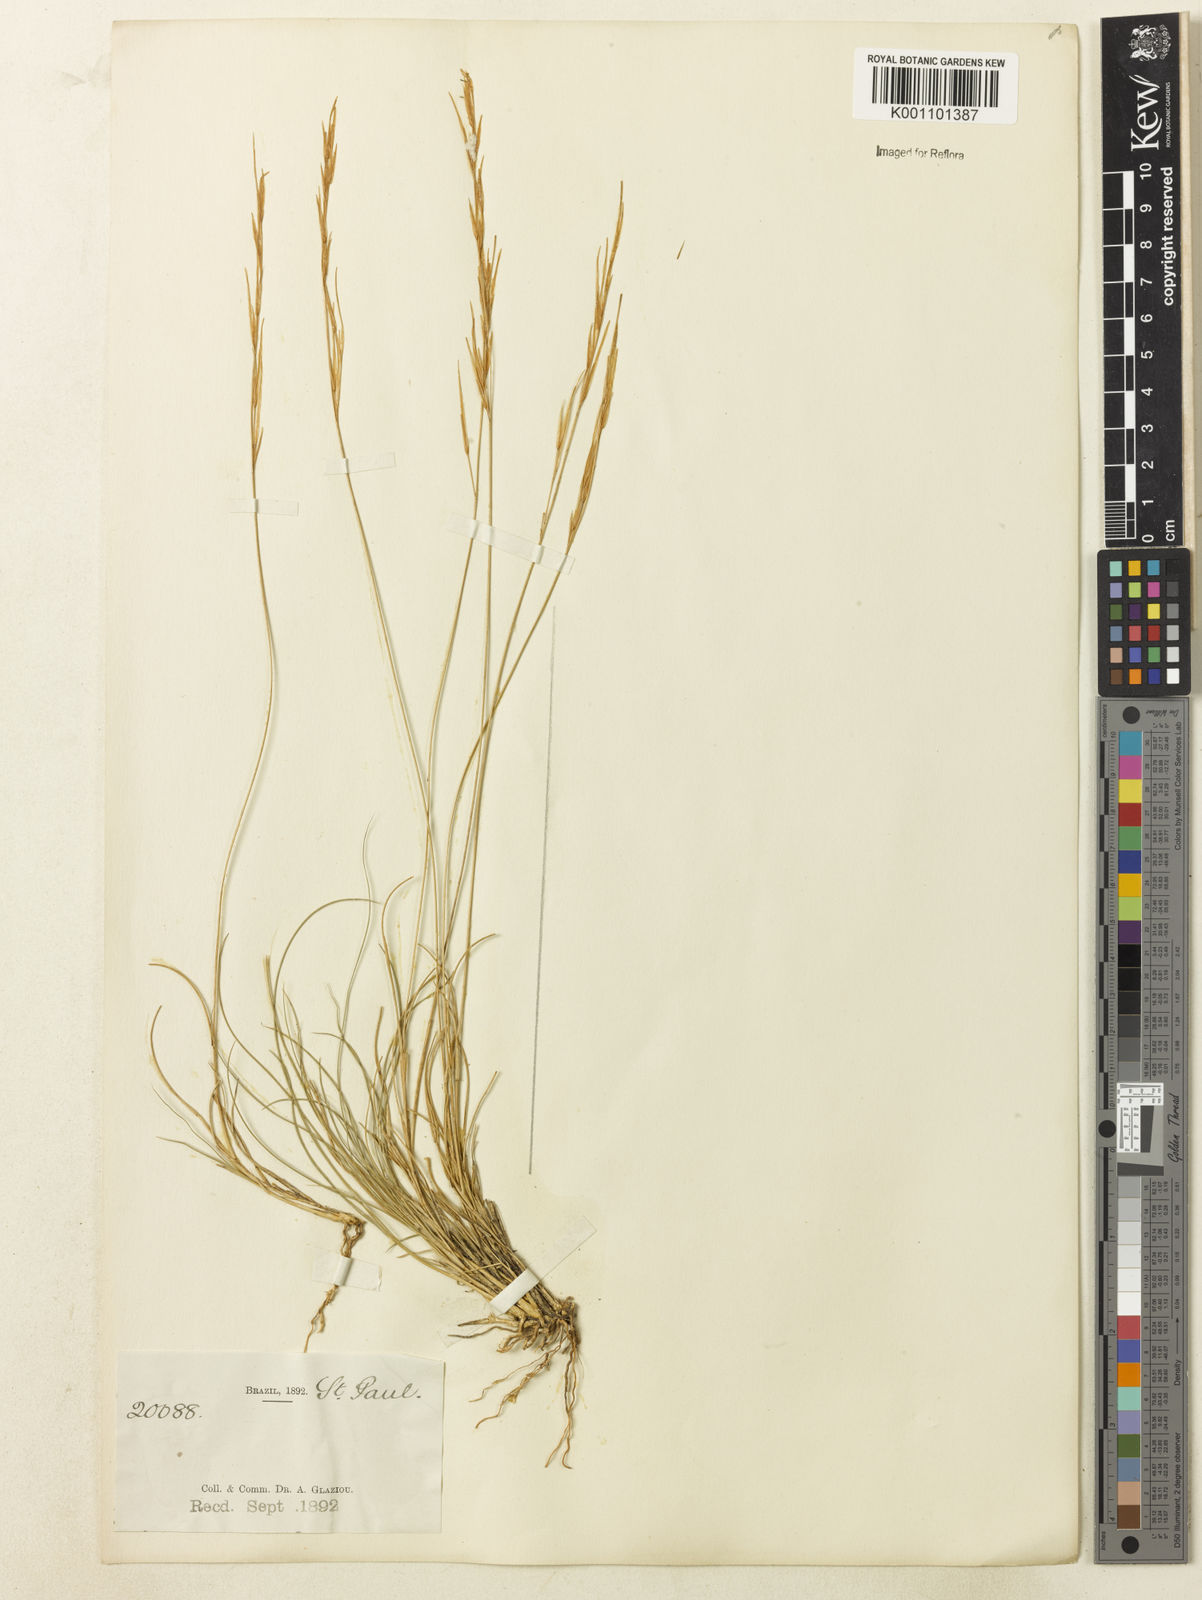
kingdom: Plantae
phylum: Tracheophyta
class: Liliopsida
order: Poales
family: Poaceae
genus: Aristida
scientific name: Aristida
